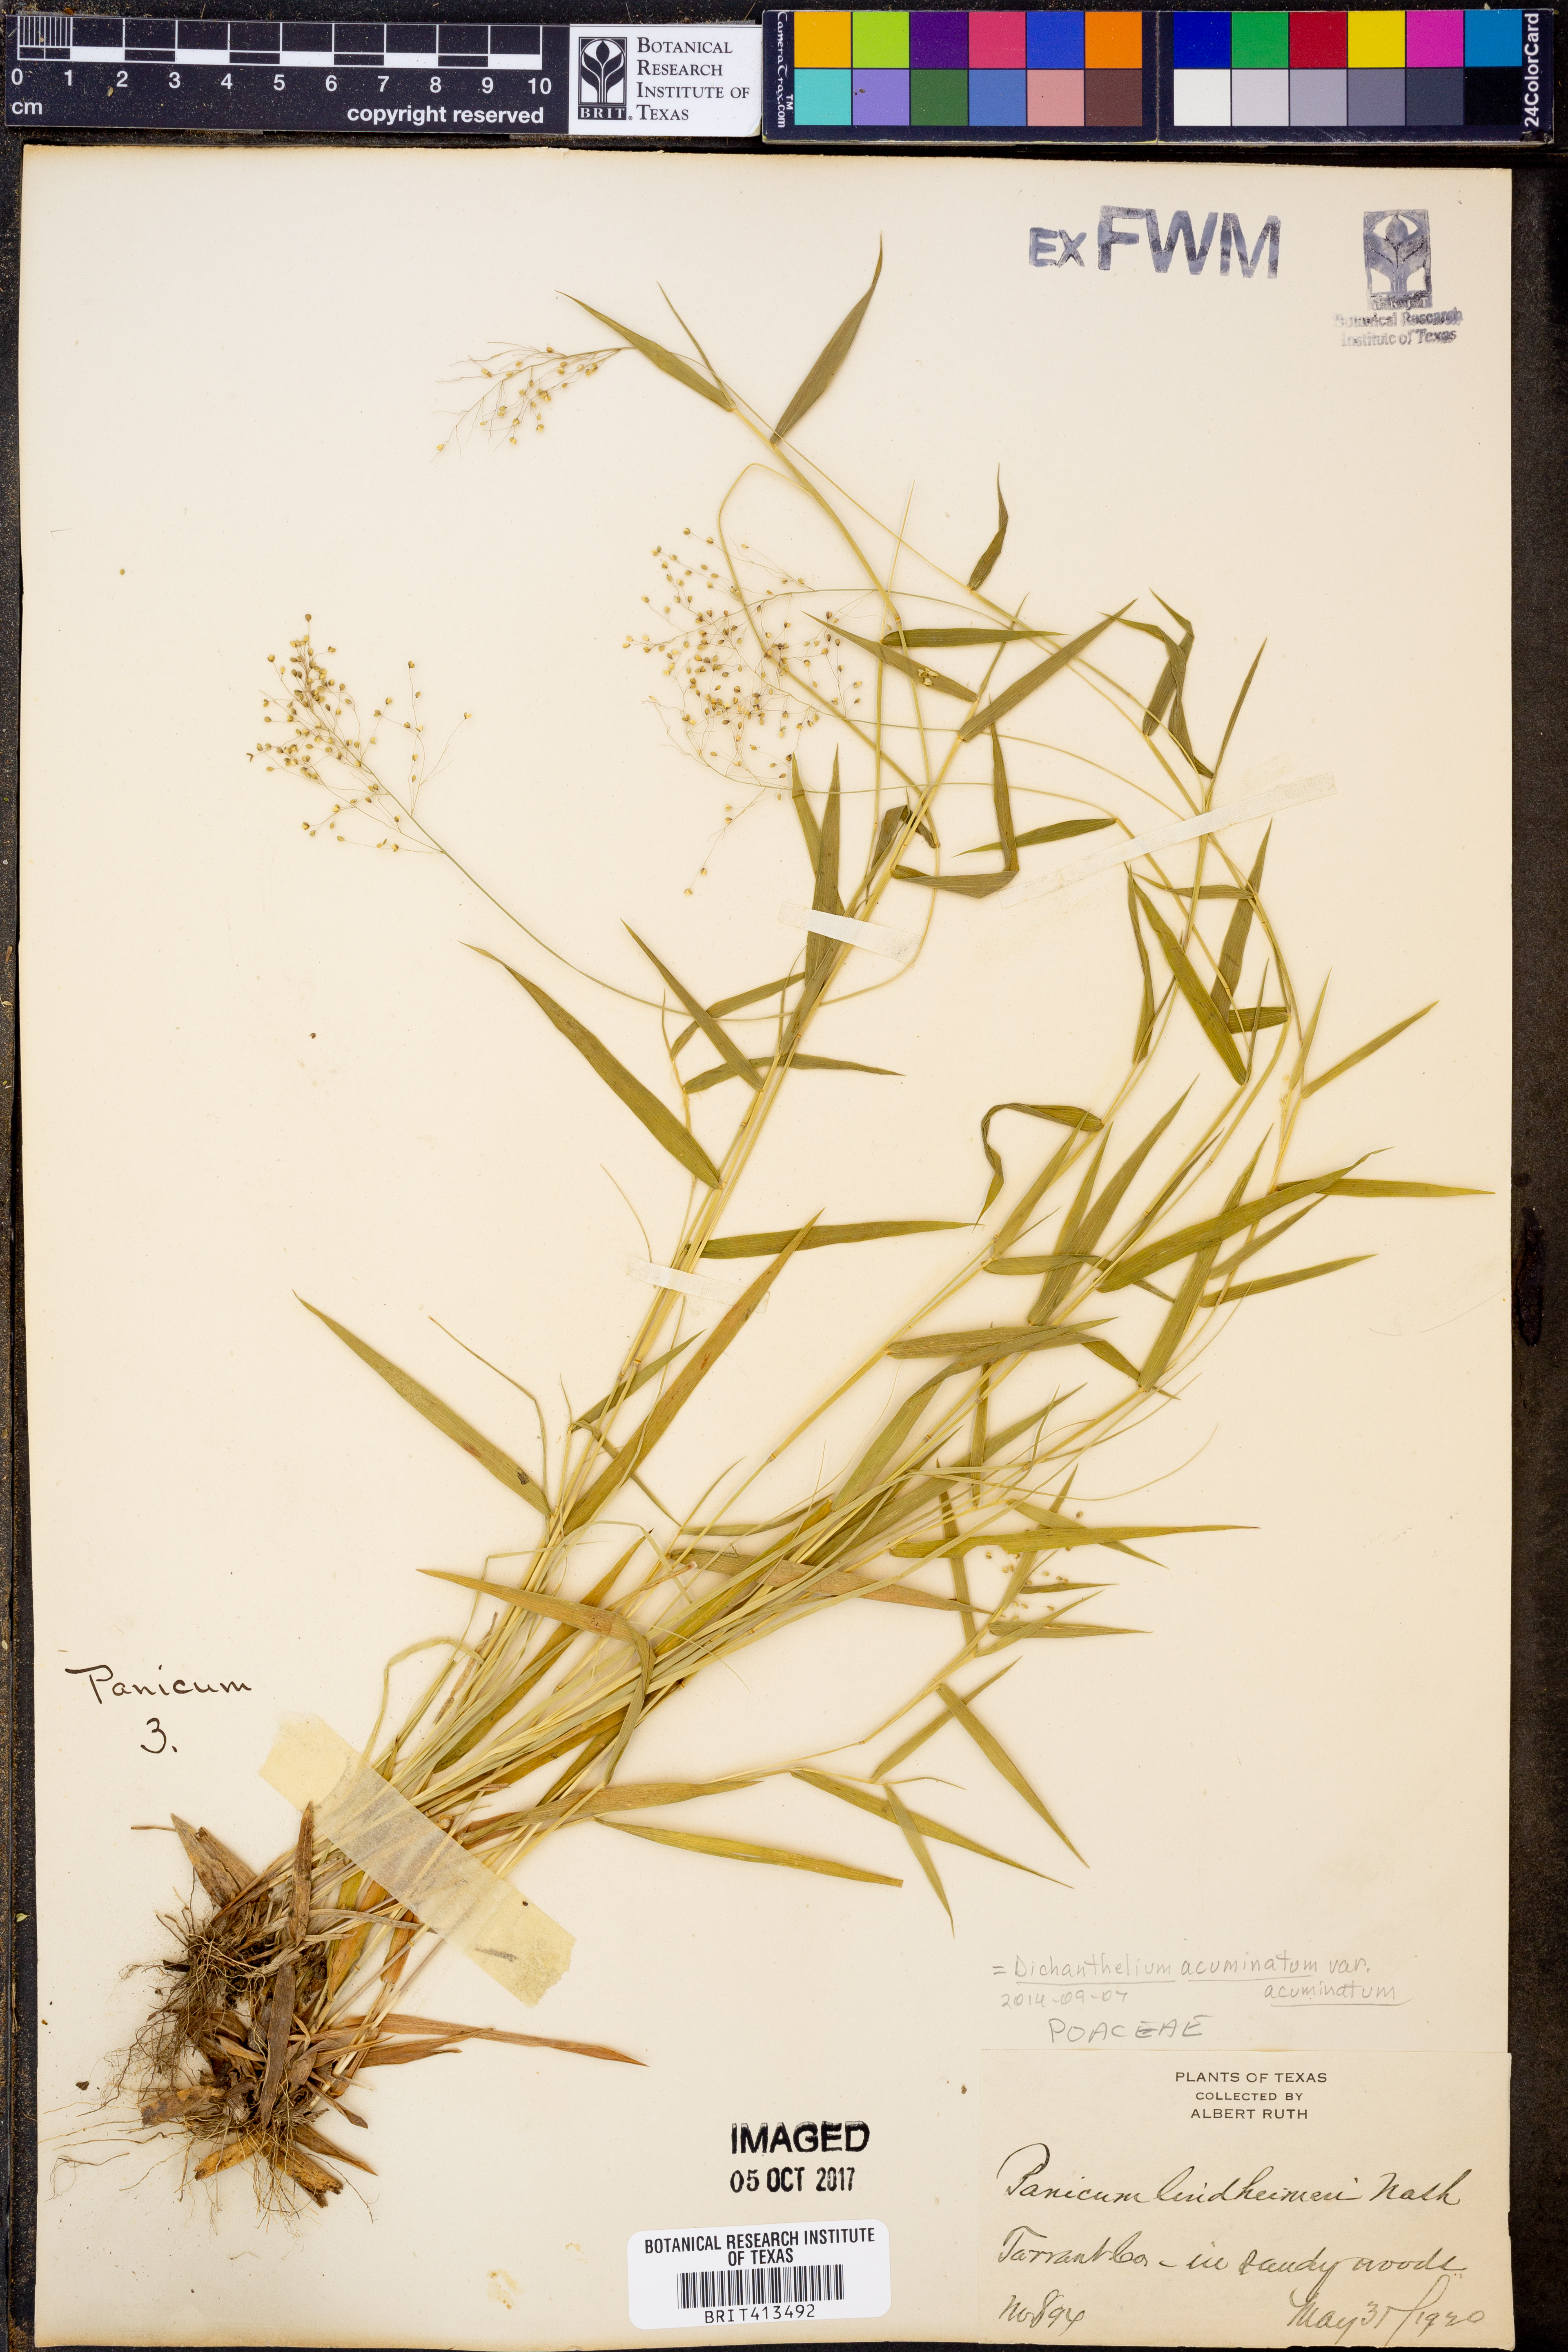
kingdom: Plantae
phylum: Tracheophyta
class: Liliopsida
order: Poales
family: Poaceae
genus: Dichanthelium
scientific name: Dichanthelium acuminatum
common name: Hairy panic grass
